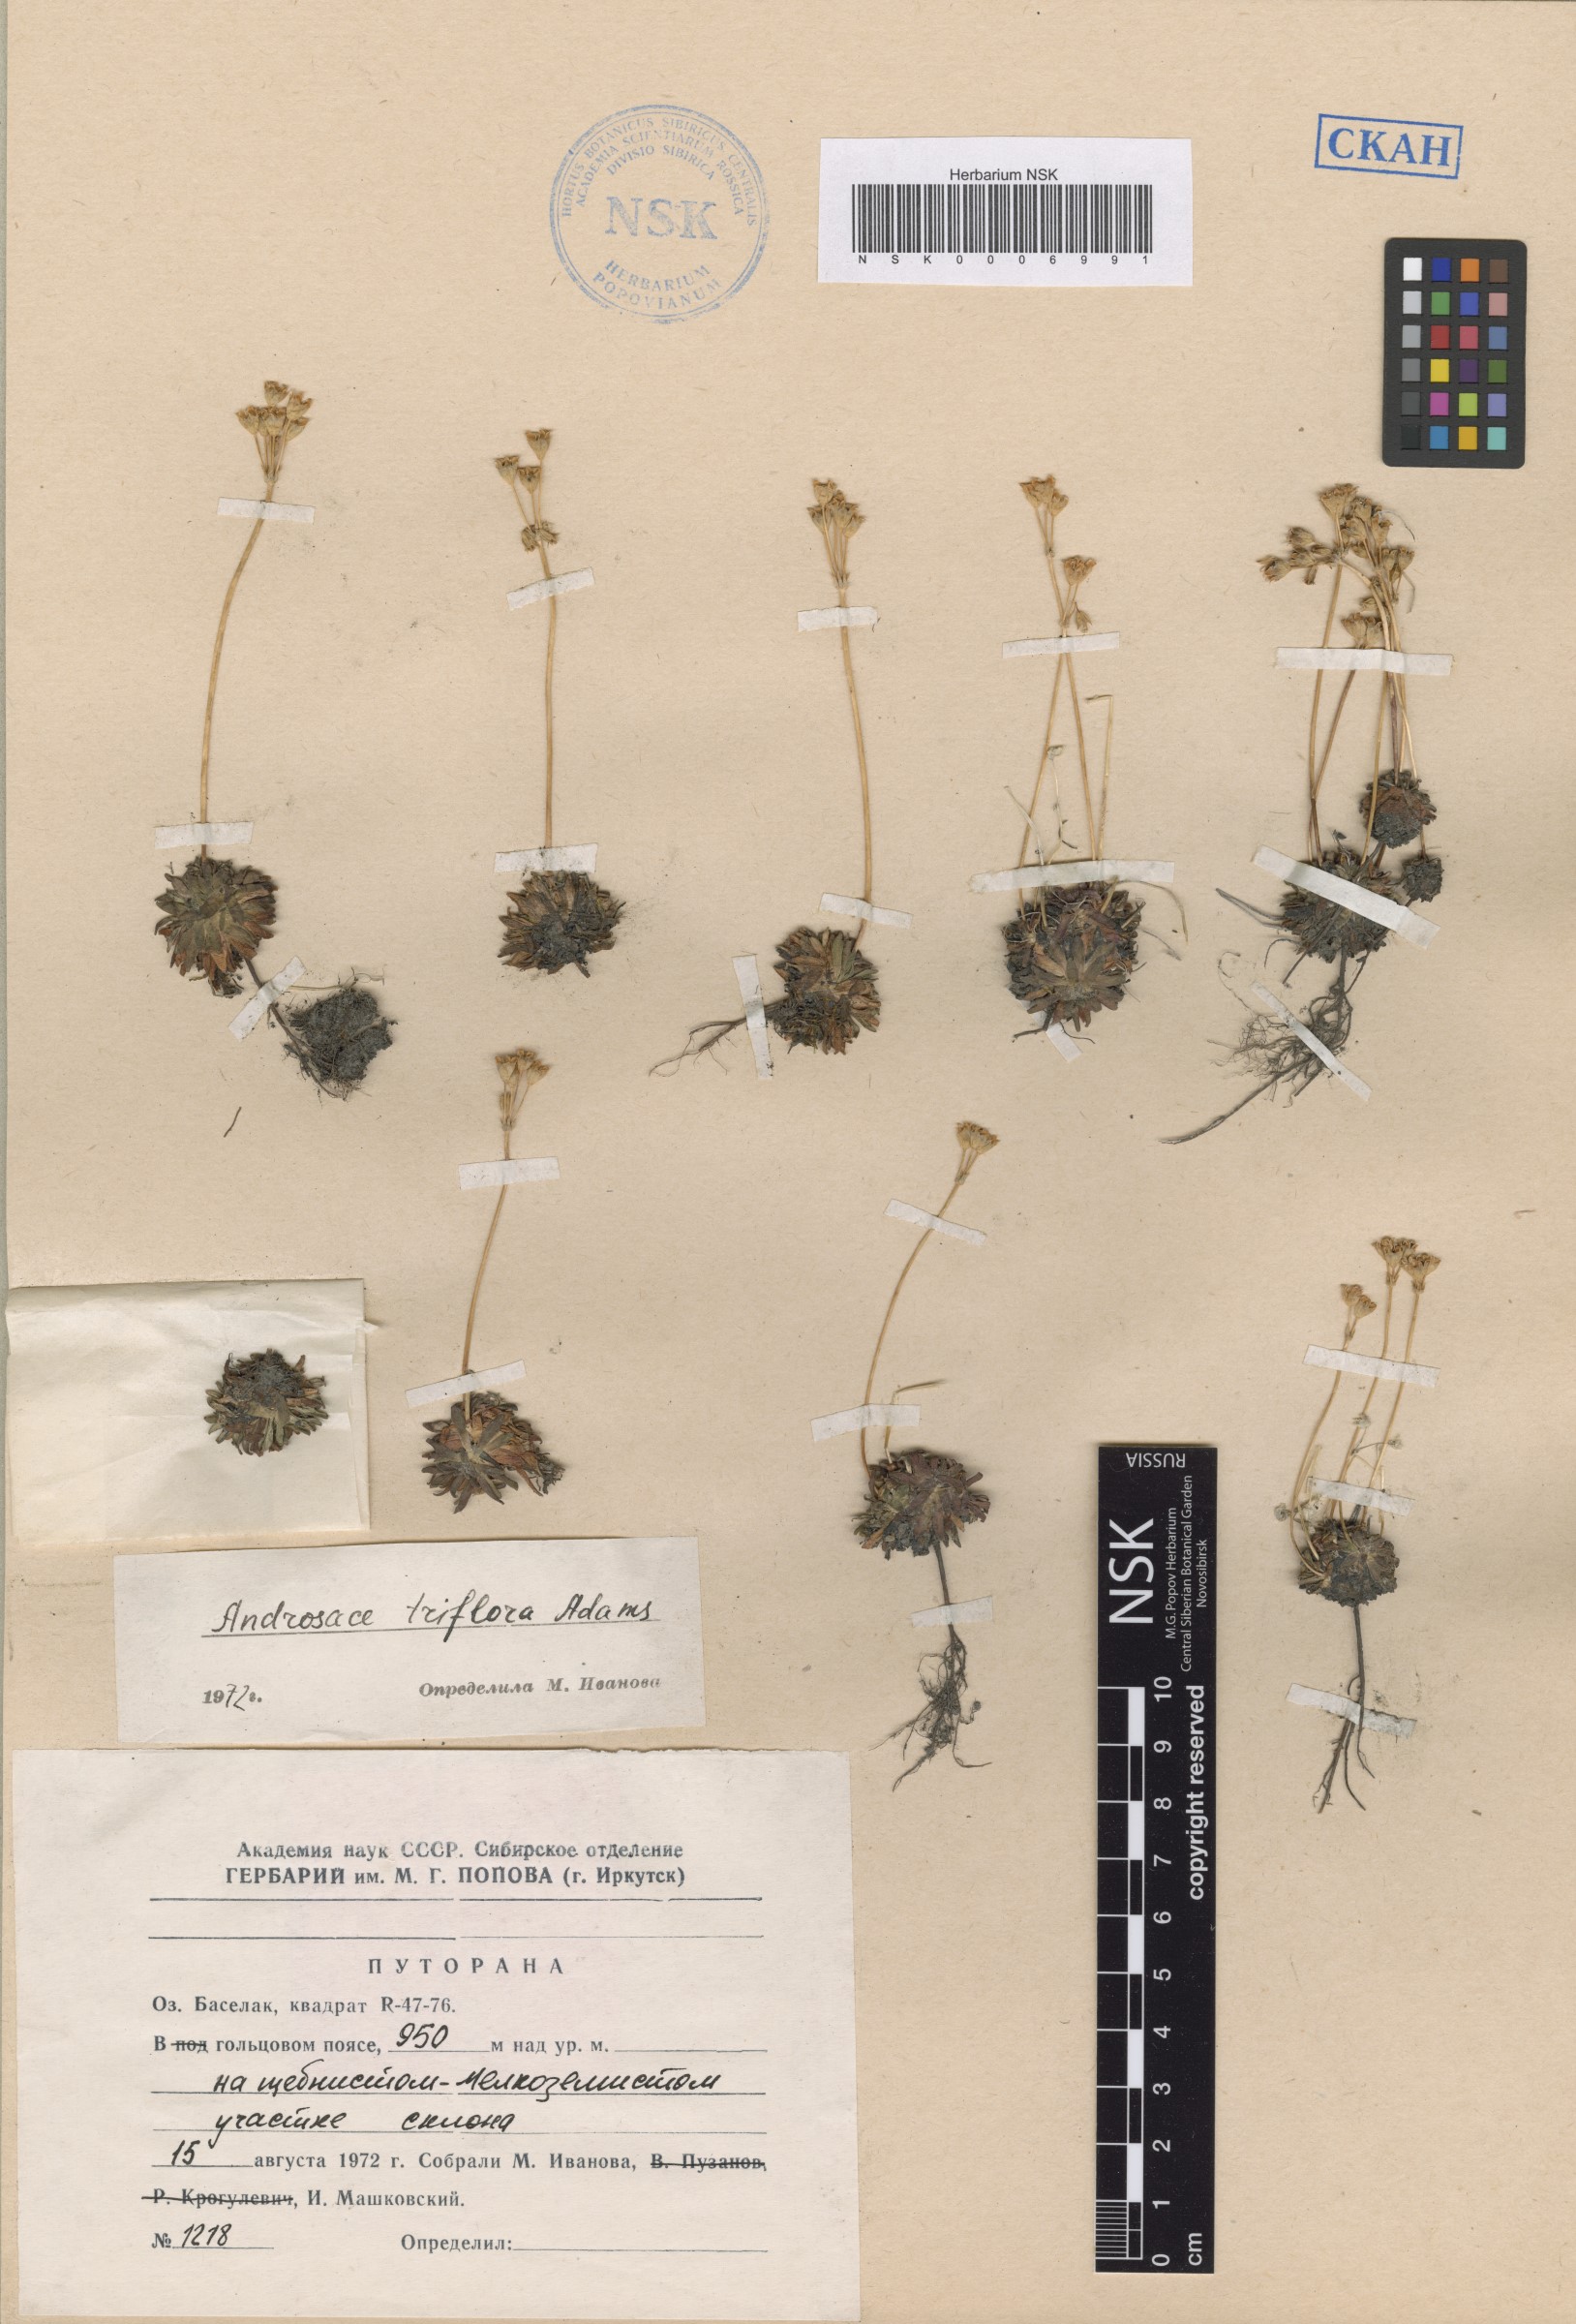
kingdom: Plantae
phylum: Tracheophyta
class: Magnoliopsida
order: Ericales
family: Primulaceae
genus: Androsace
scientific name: Androsace triflora
